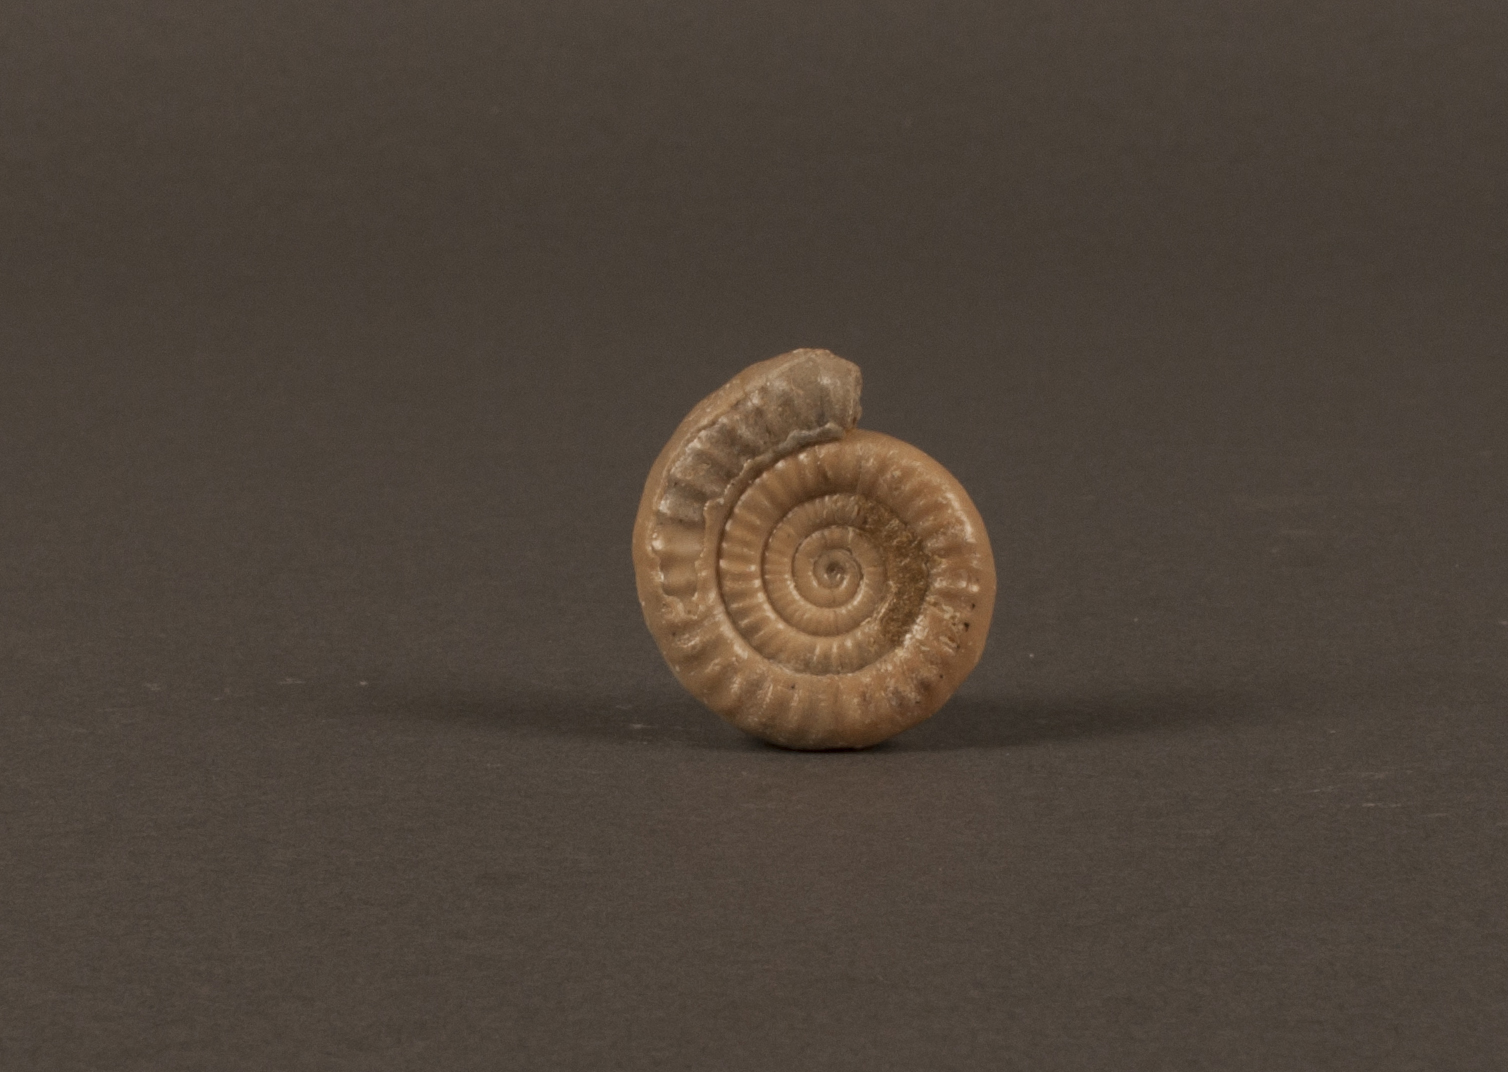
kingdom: Animalia
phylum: Mollusca
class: Cephalopoda
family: Psiloceratidae
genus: Caloceras
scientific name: Caloceras bloomfieldense
